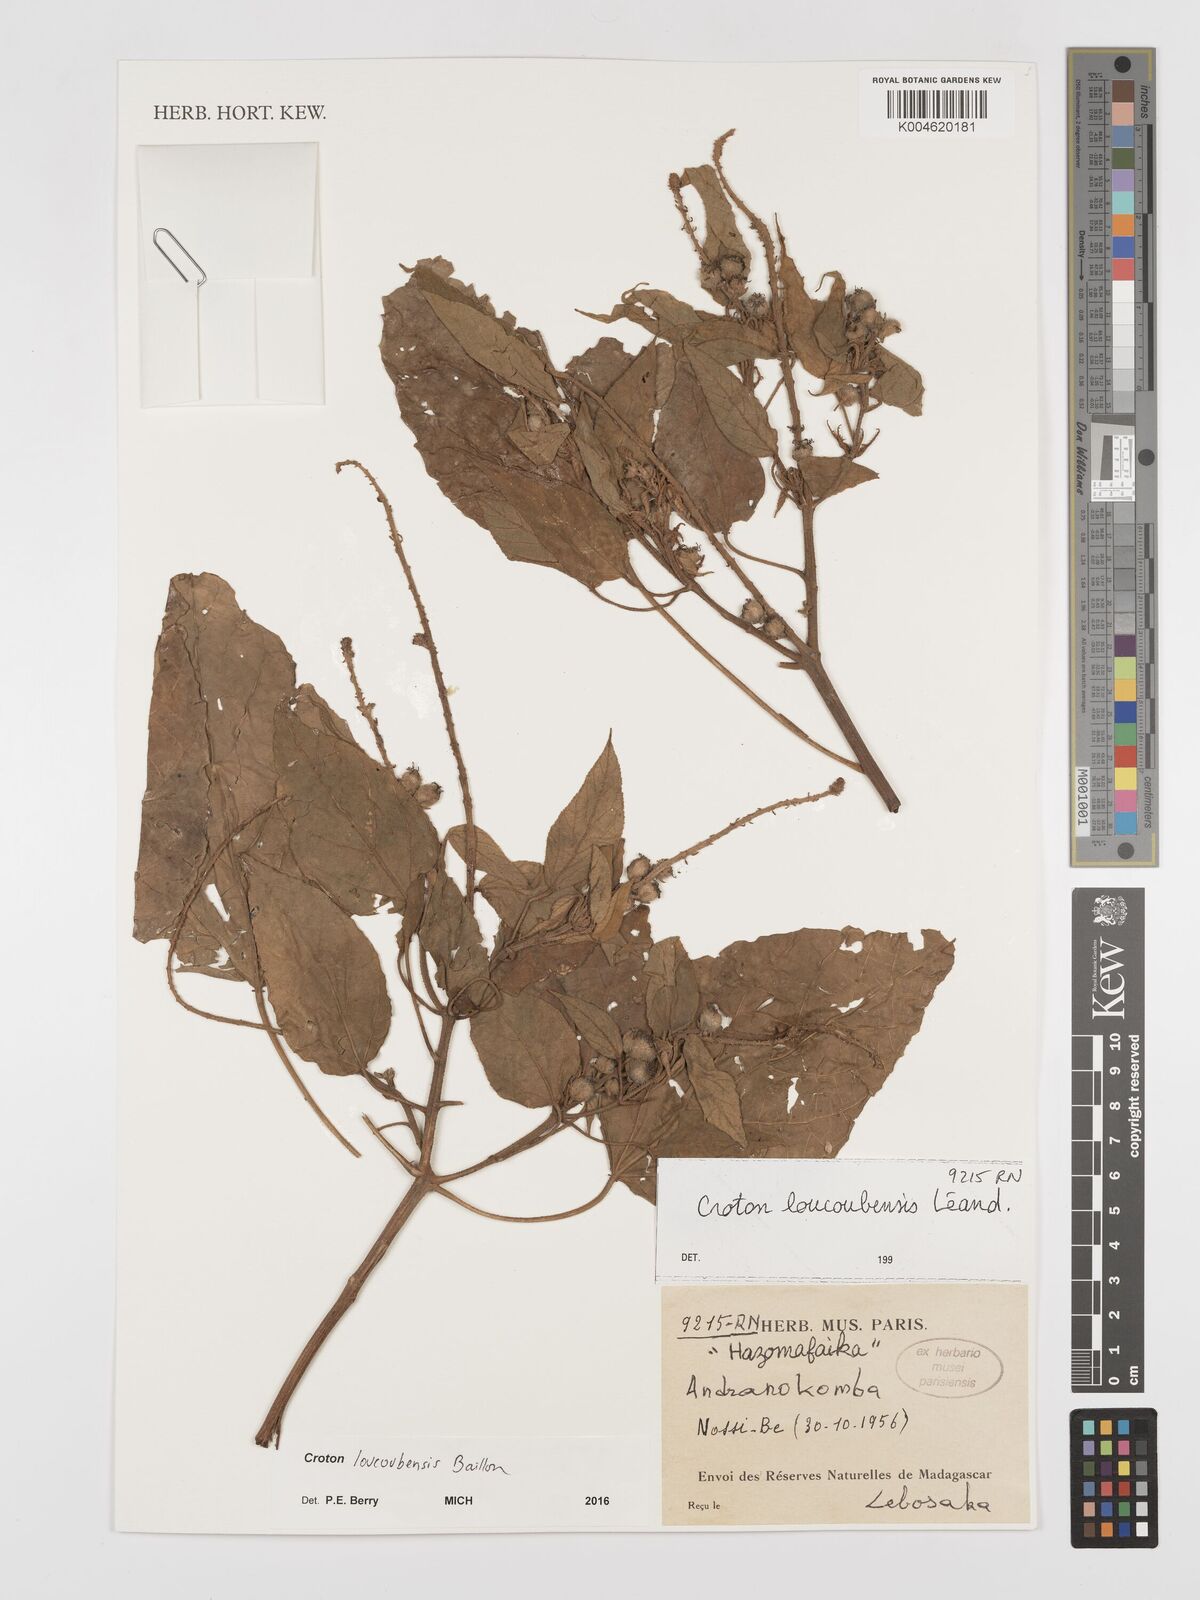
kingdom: Plantae
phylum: Tracheophyta
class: Magnoliopsida
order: Malpighiales
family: Euphorbiaceae
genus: Croton
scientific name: Croton loucoubensis
